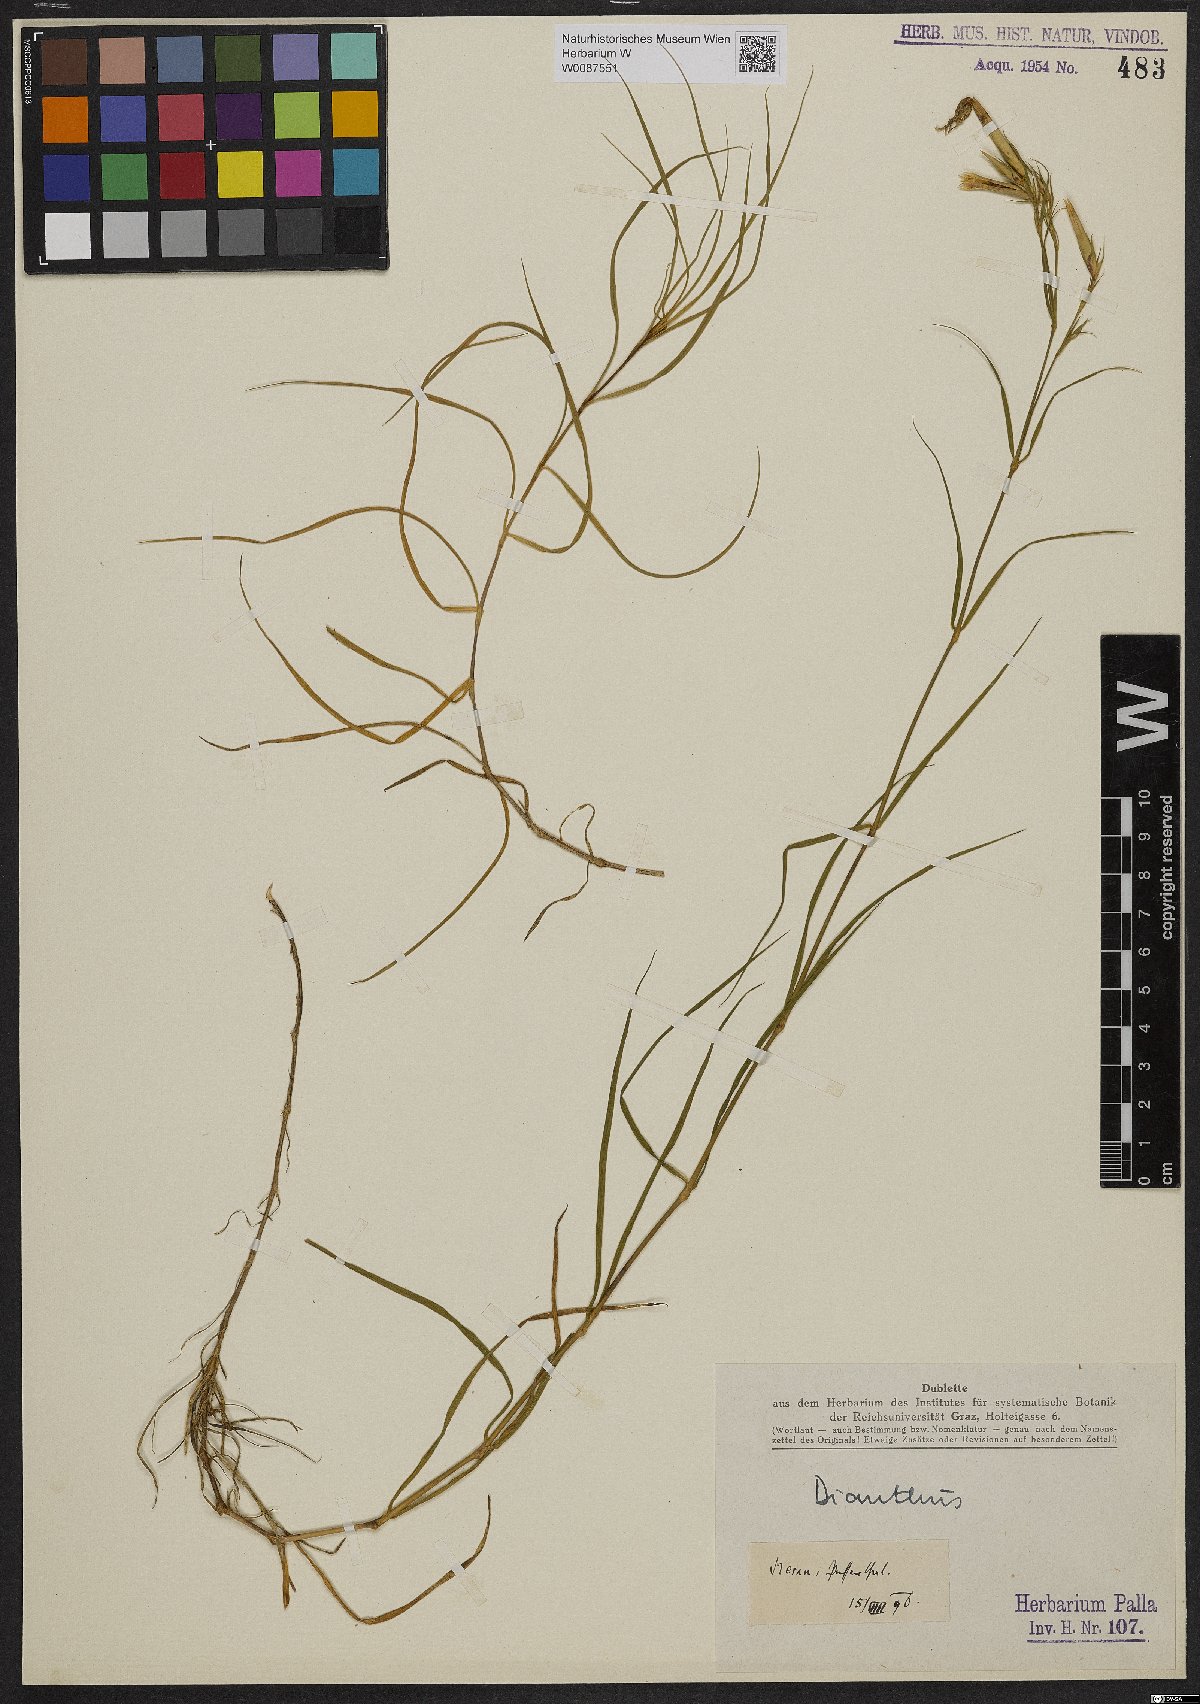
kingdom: Plantae
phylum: Tracheophyta
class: Magnoliopsida
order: Caryophyllales
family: Caryophyllaceae
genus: Dianthus
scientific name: Dianthus
